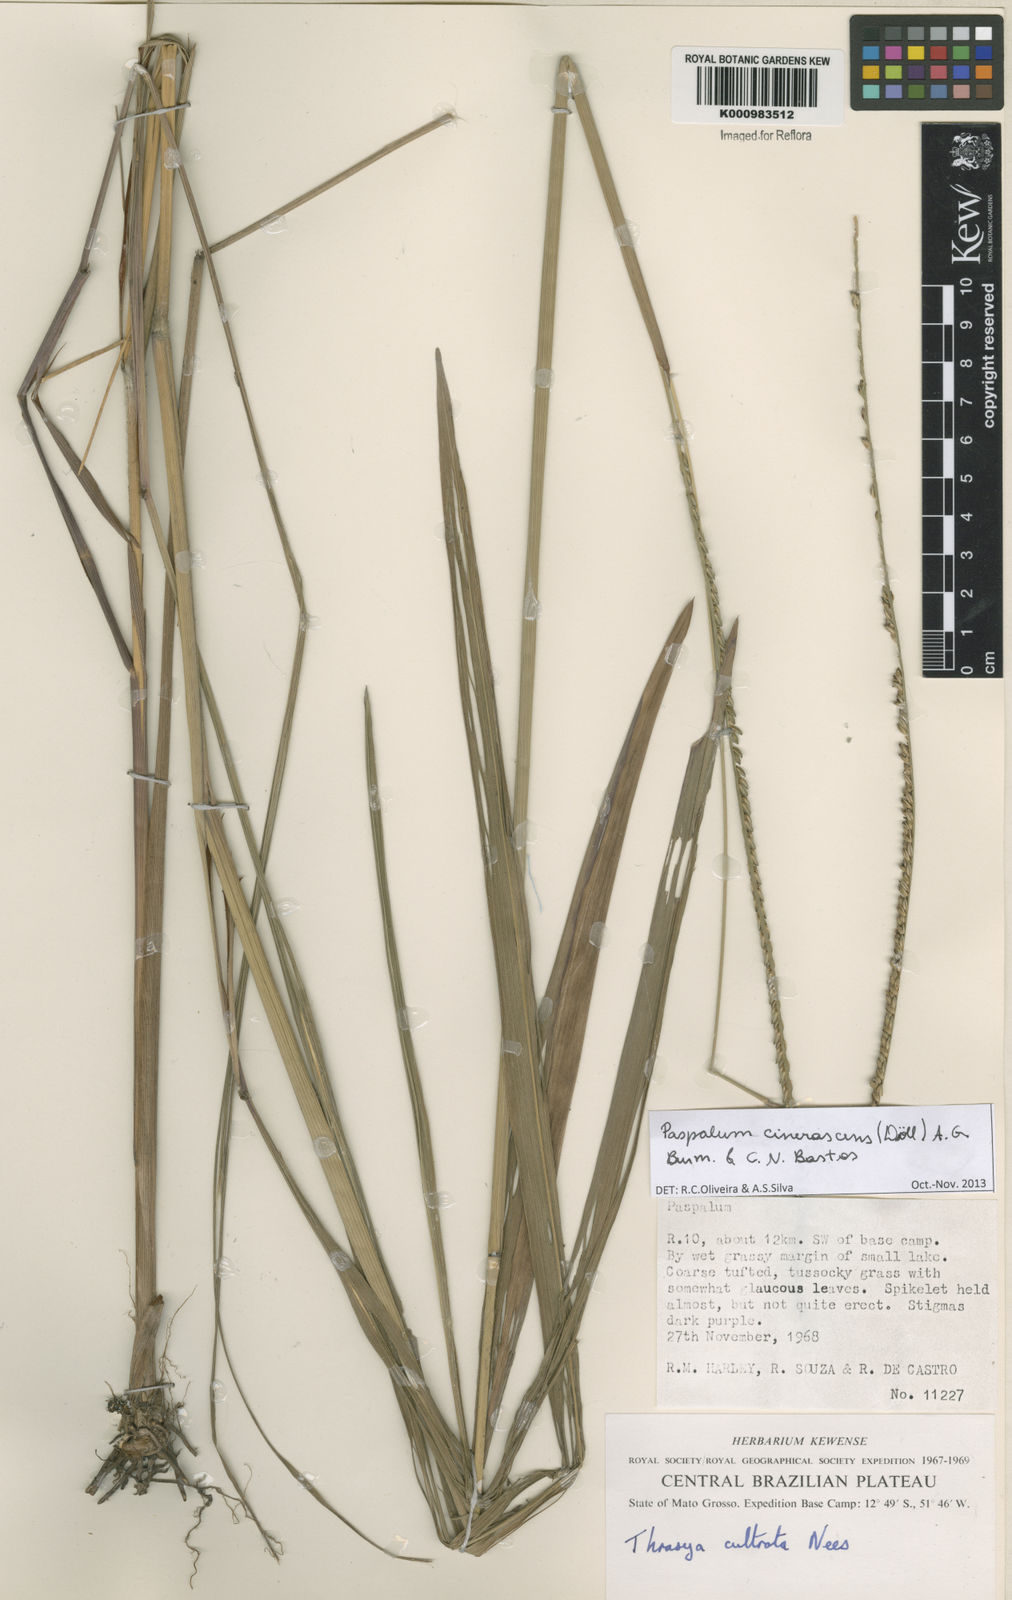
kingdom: Plantae
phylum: Tracheophyta
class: Liliopsida
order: Poales
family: Poaceae
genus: Paspalum
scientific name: Paspalum
